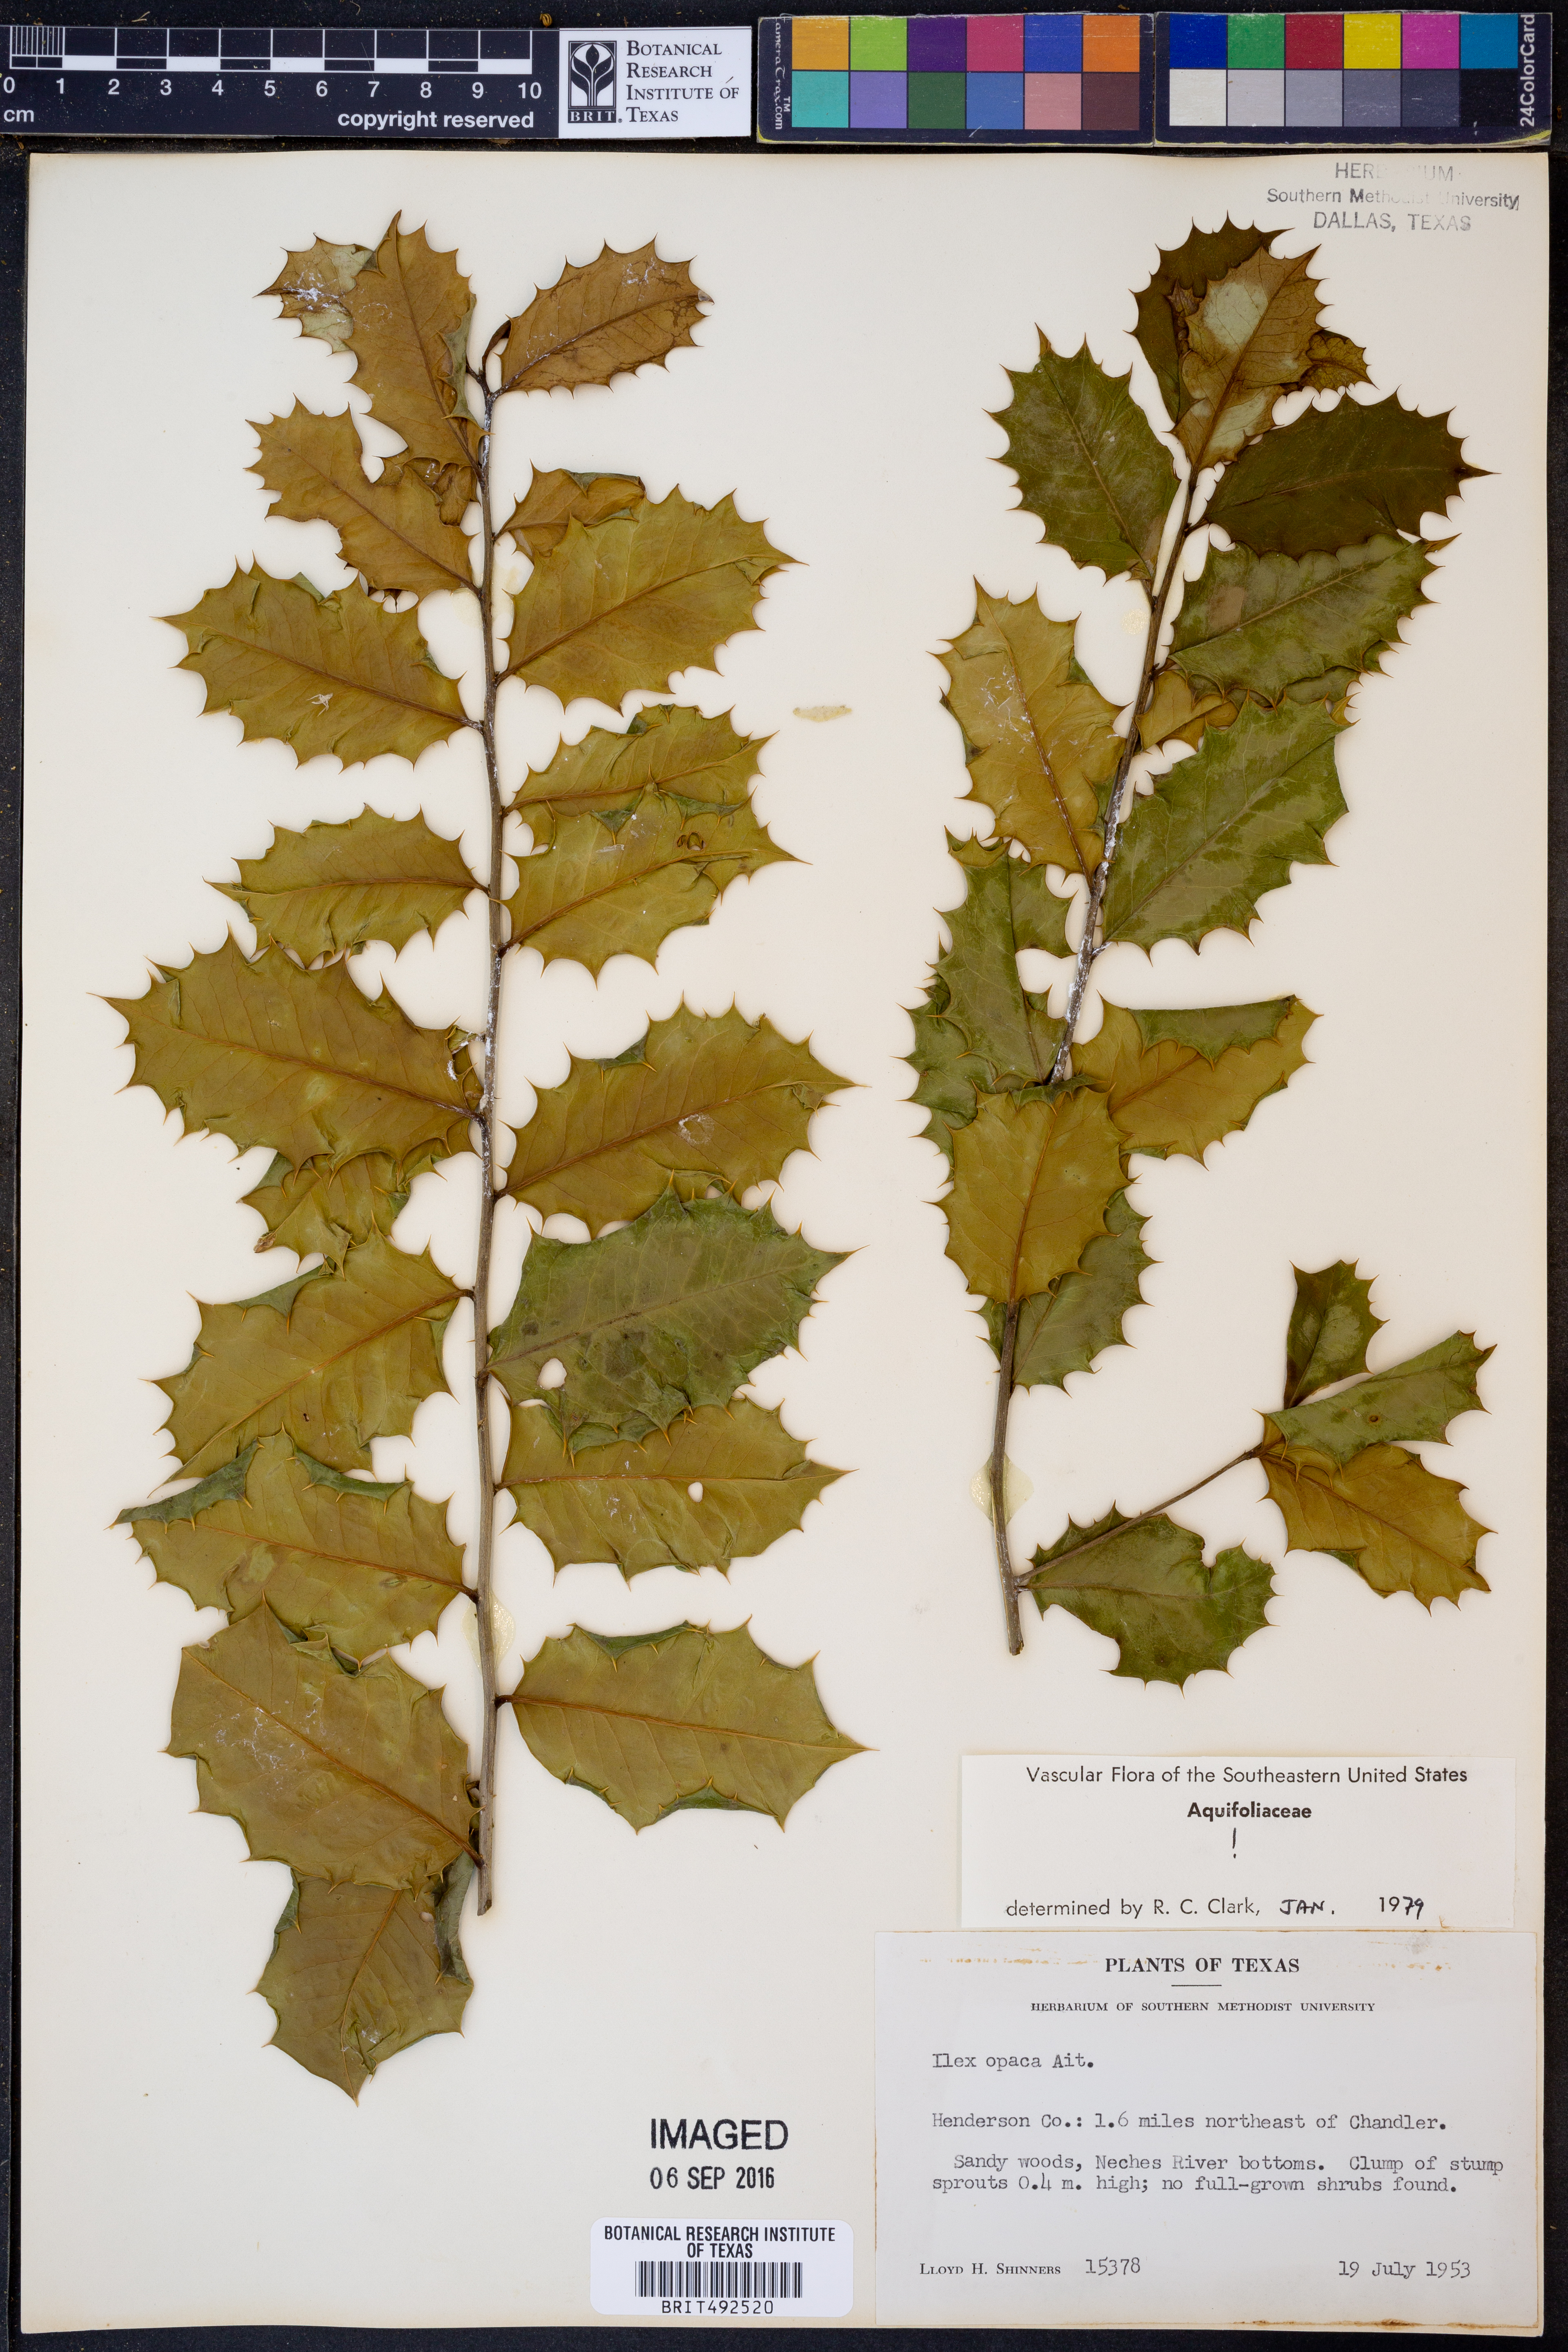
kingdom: Plantae
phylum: Tracheophyta
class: Magnoliopsida
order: Aquifoliales
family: Aquifoliaceae
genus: Ilex
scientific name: Ilex opaca
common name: American holly
